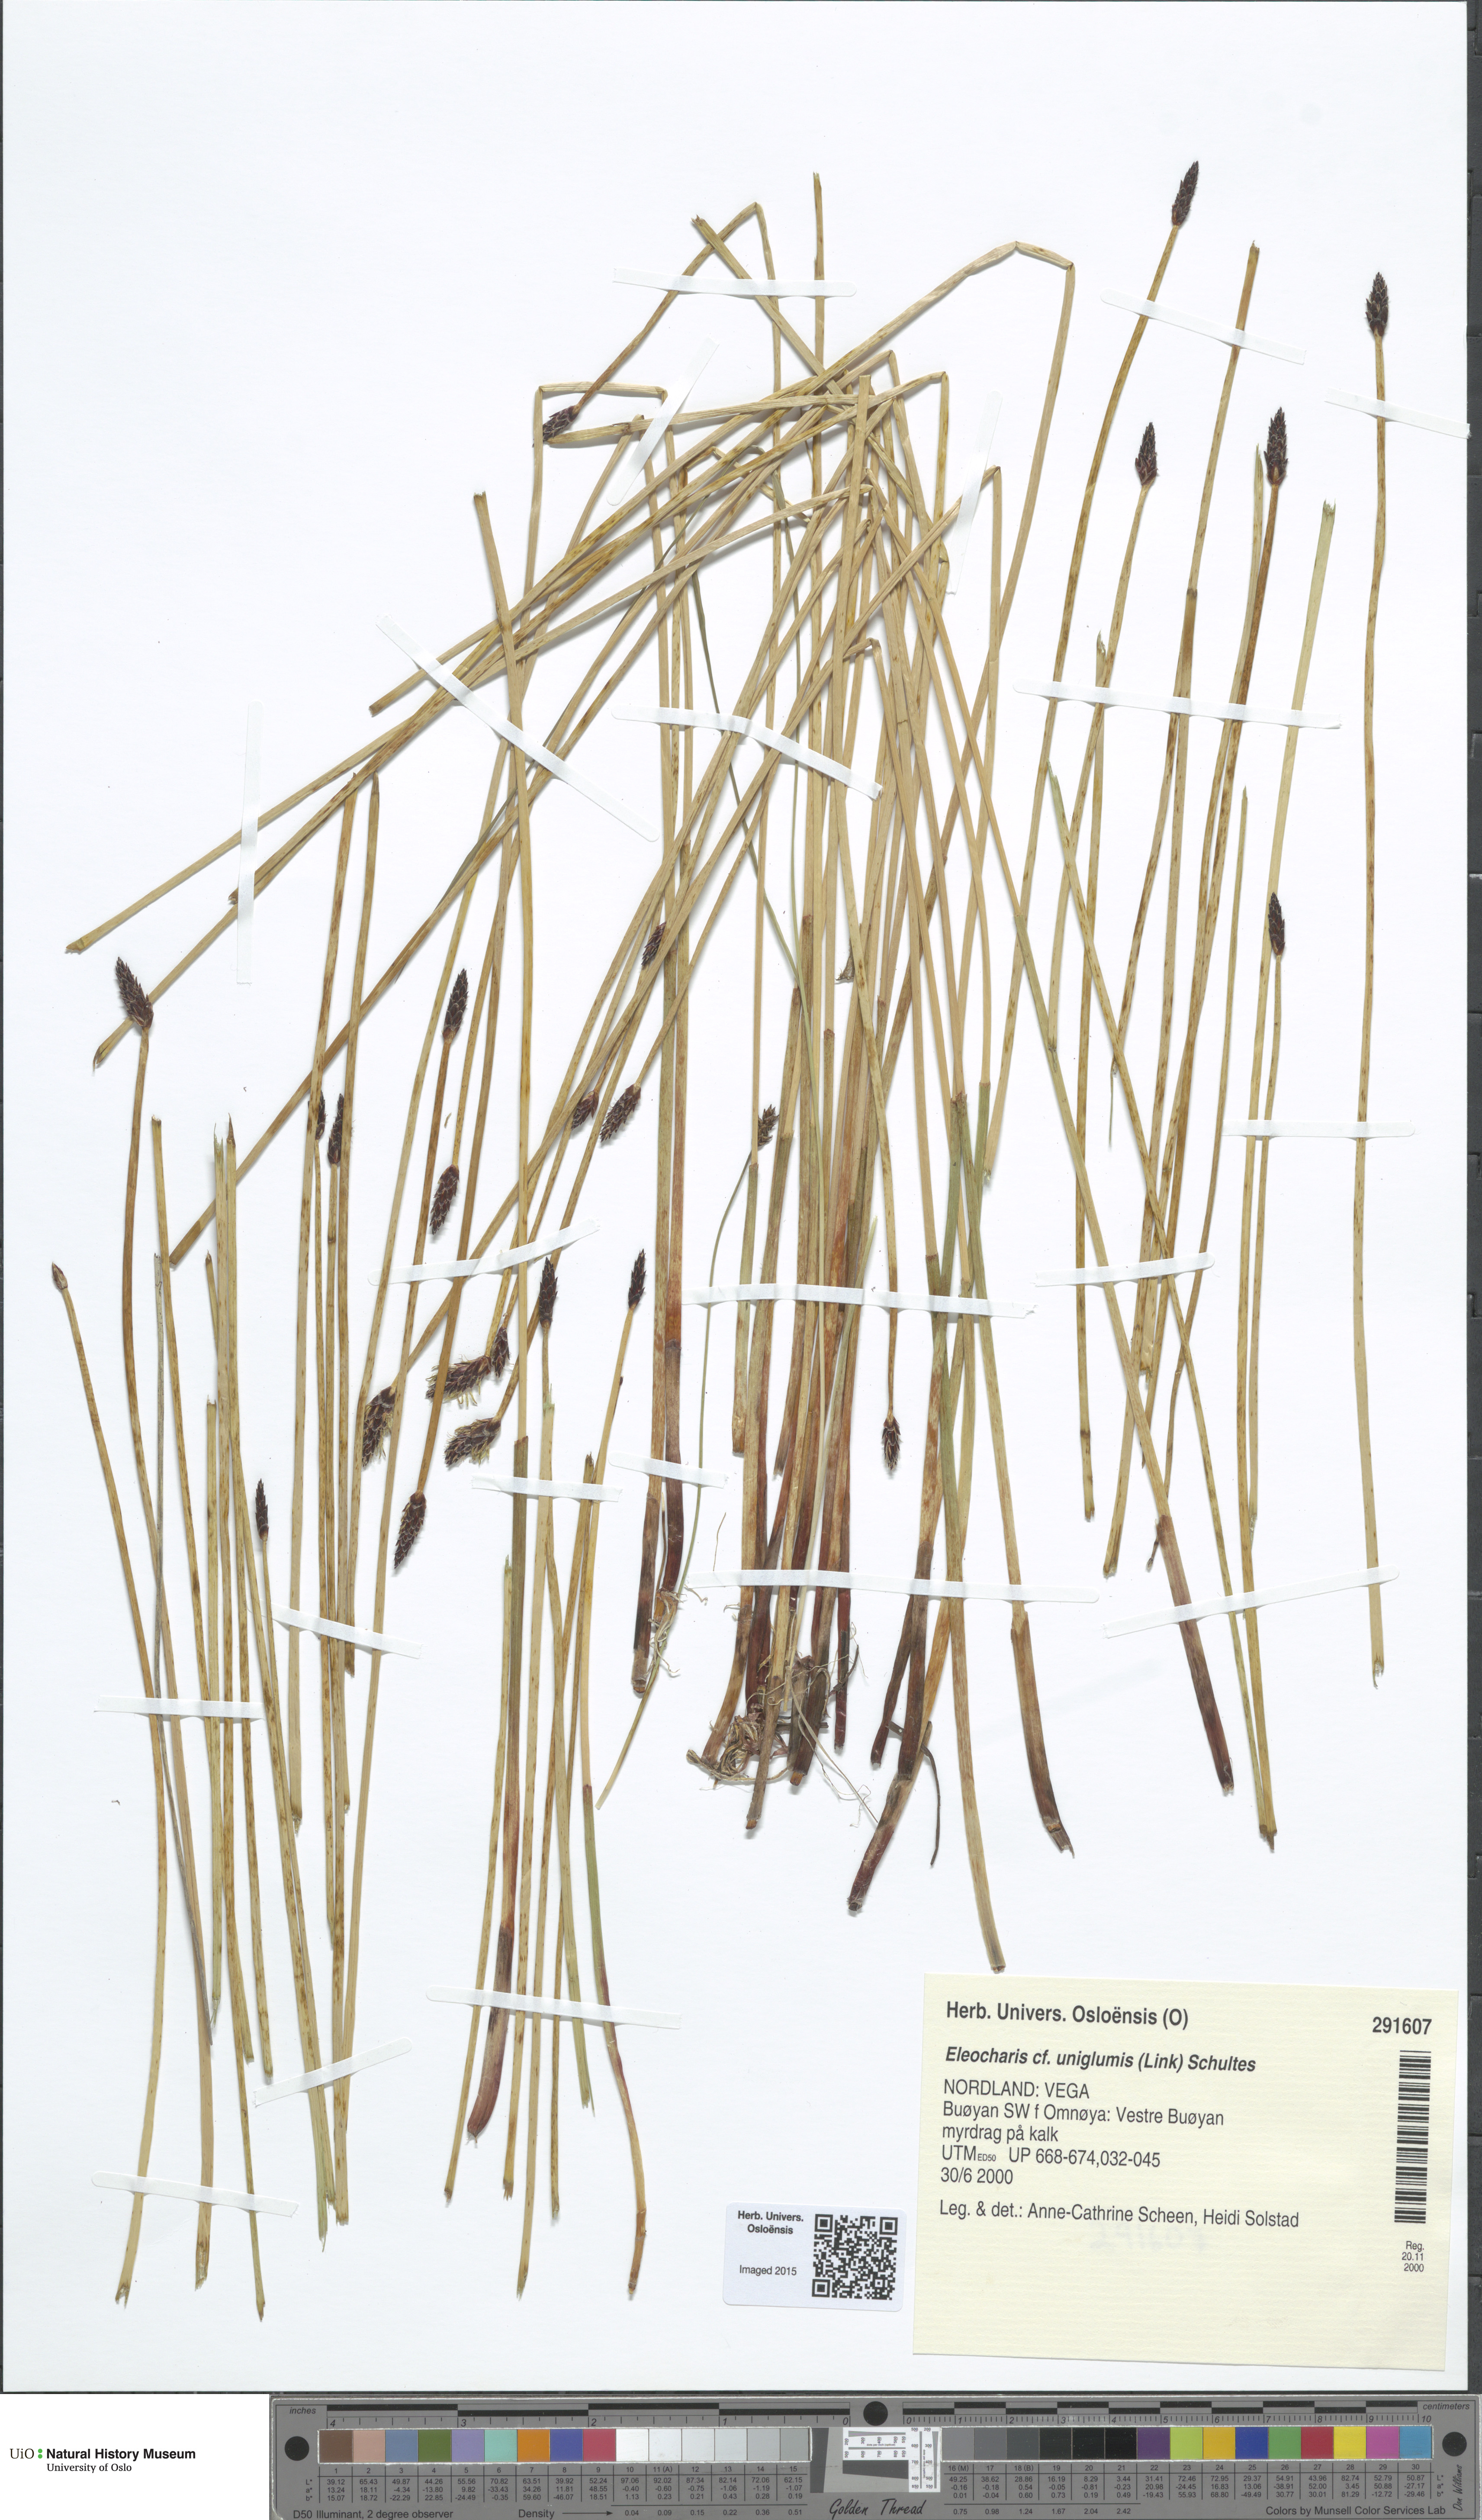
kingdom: Plantae
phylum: Tracheophyta
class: Liliopsida
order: Poales
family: Cyperaceae
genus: Eleocharis
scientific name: Eleocharis uniglumis
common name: Slender spike-rush
